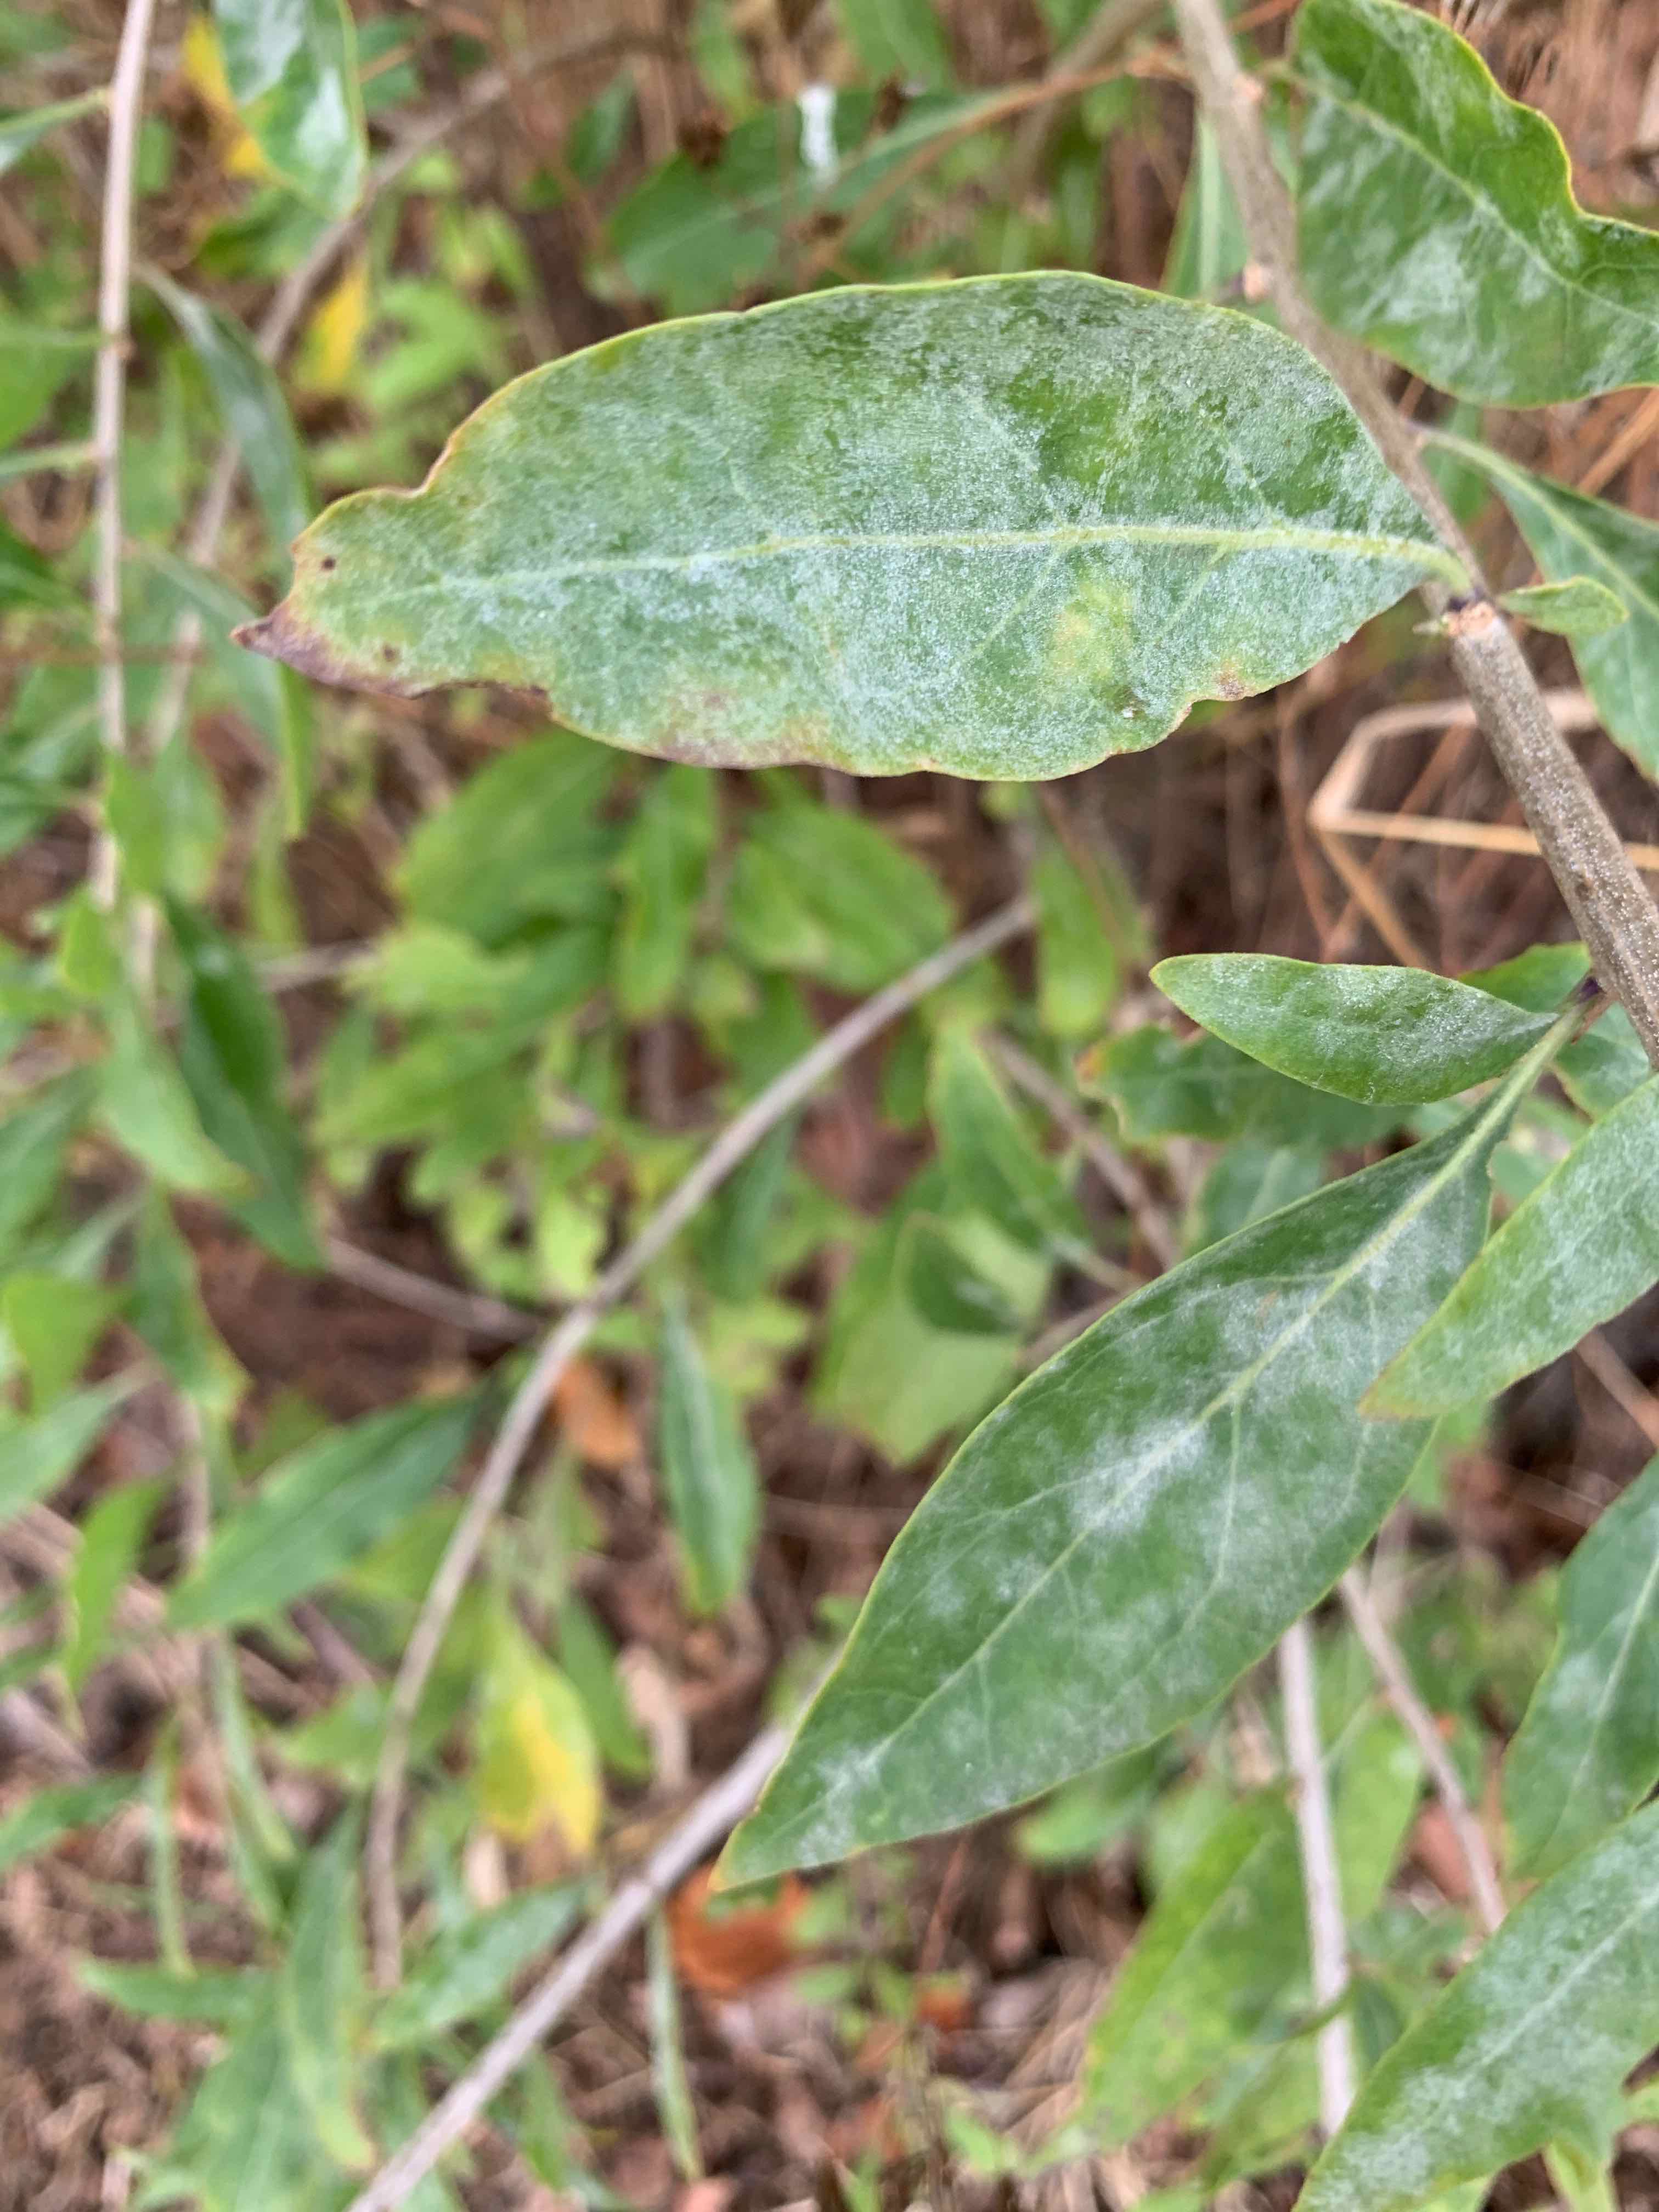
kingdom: Fungi
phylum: Ascomycota
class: Leotiomycetes
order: Helotiales
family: Erysiphaceae
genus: Erysiphe
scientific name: Erysiphe mougeotii
